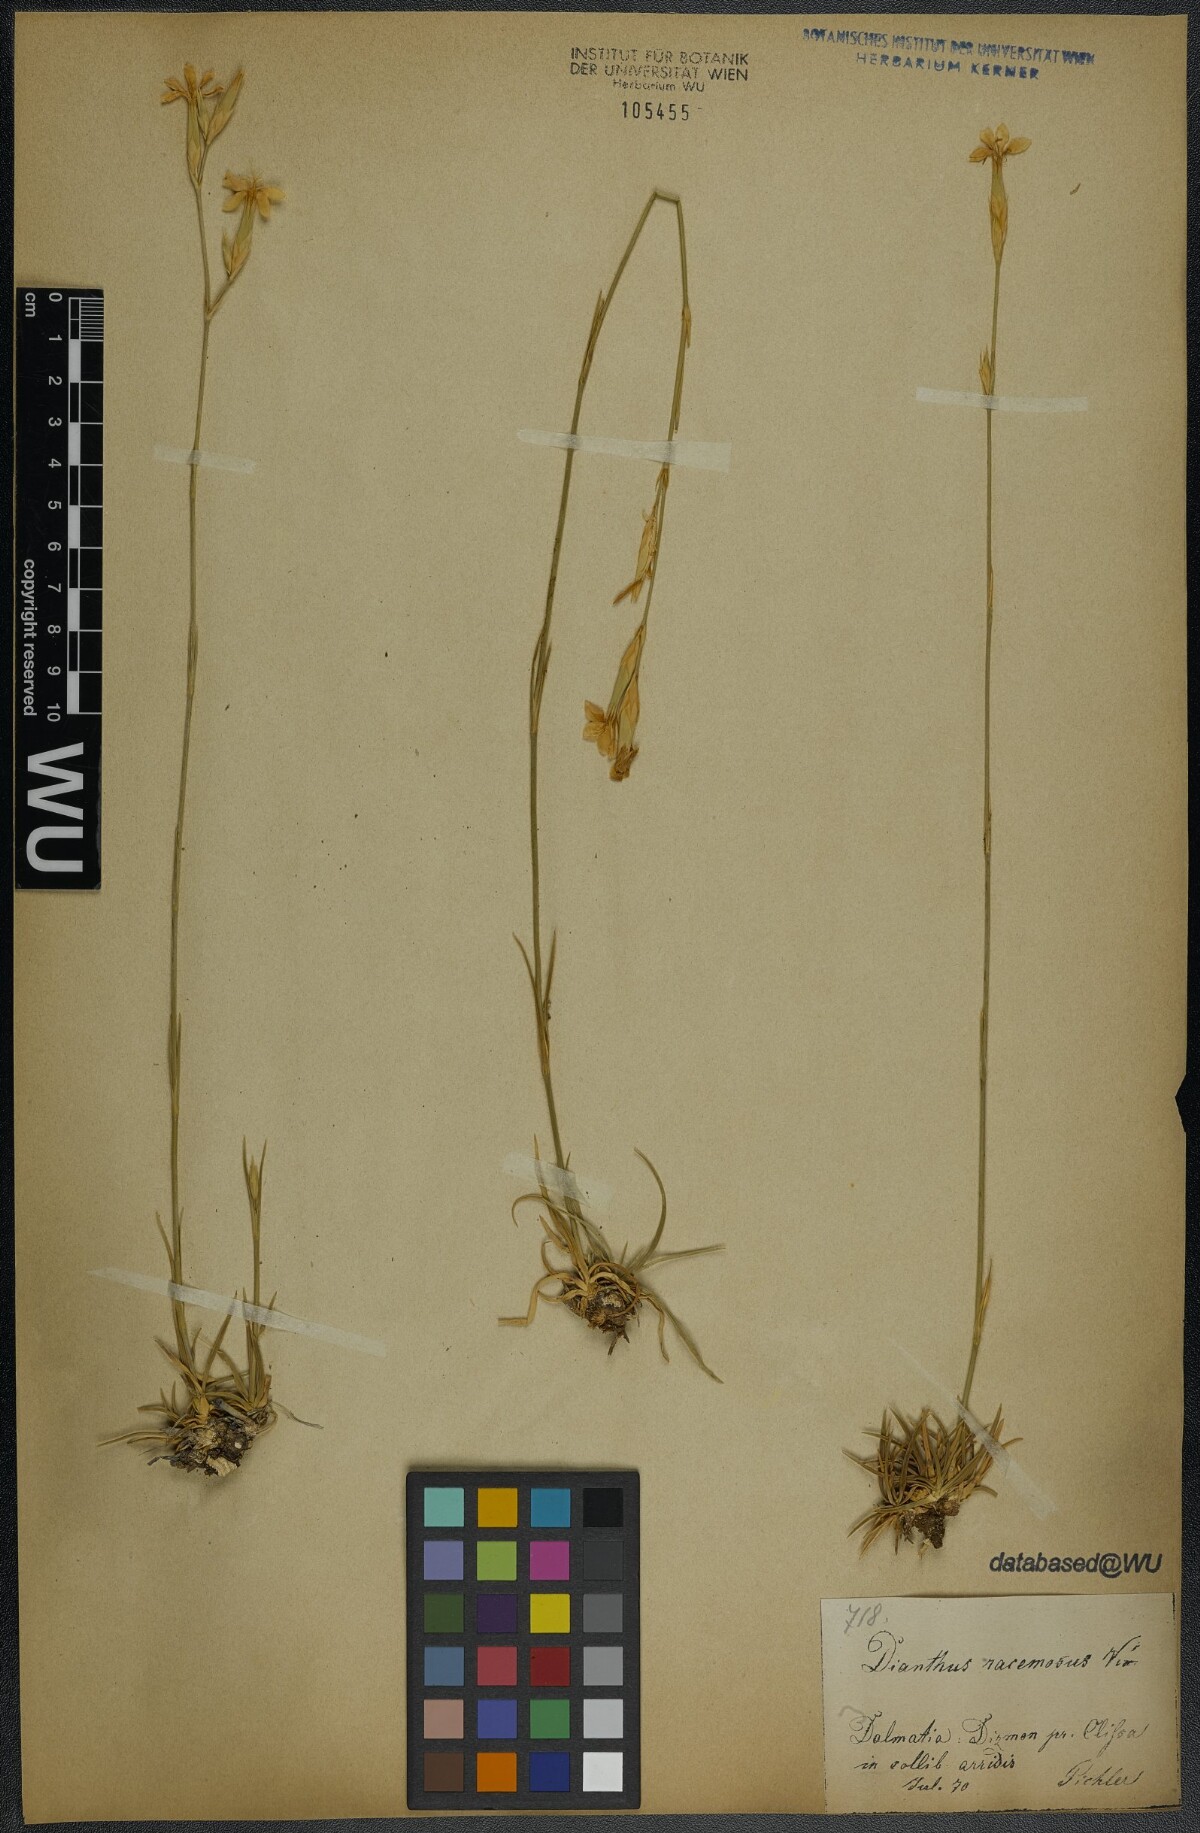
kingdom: Plantae
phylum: Tracheophyta
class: Magnoliopsida
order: Caryophyllales
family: Caryophyllaceae
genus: Dianthus
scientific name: Dianthus ciliatus
